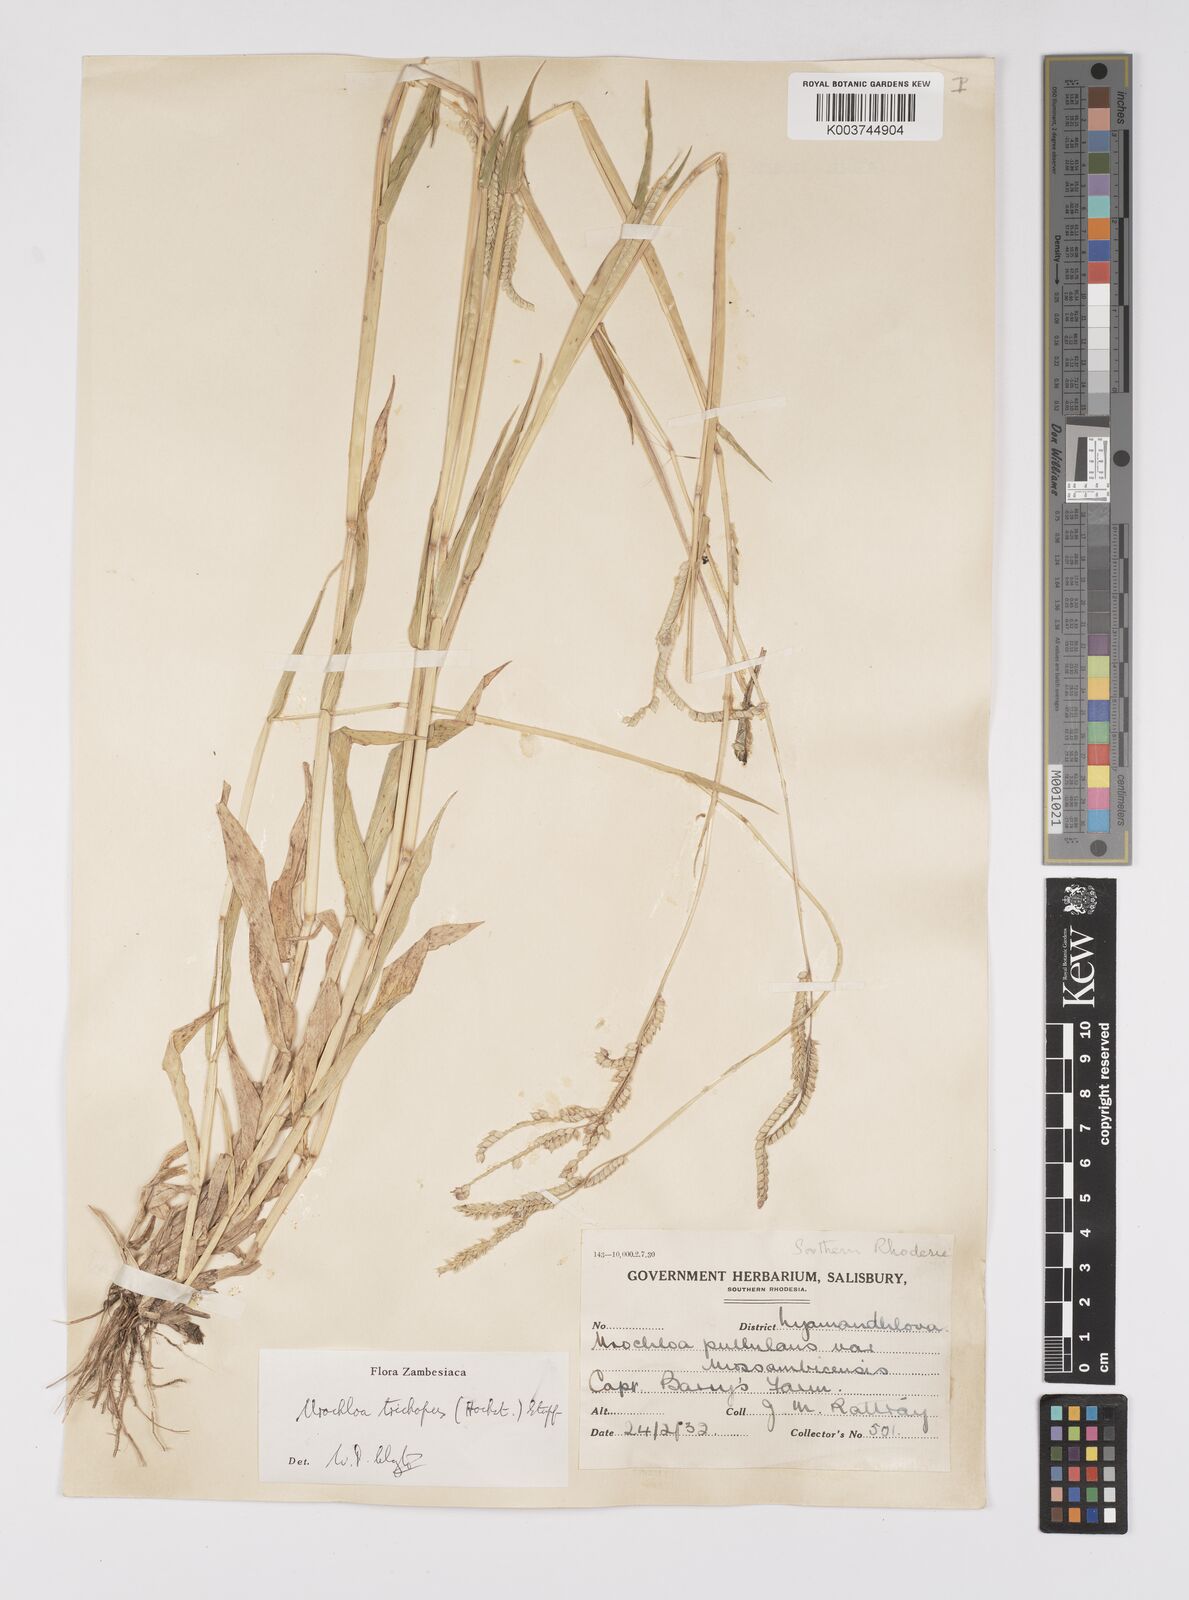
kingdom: Plantae
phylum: Tracheophyta
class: Liliopsida
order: Poales
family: Poaceae
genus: Urochloa
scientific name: Urochloa trichopus
